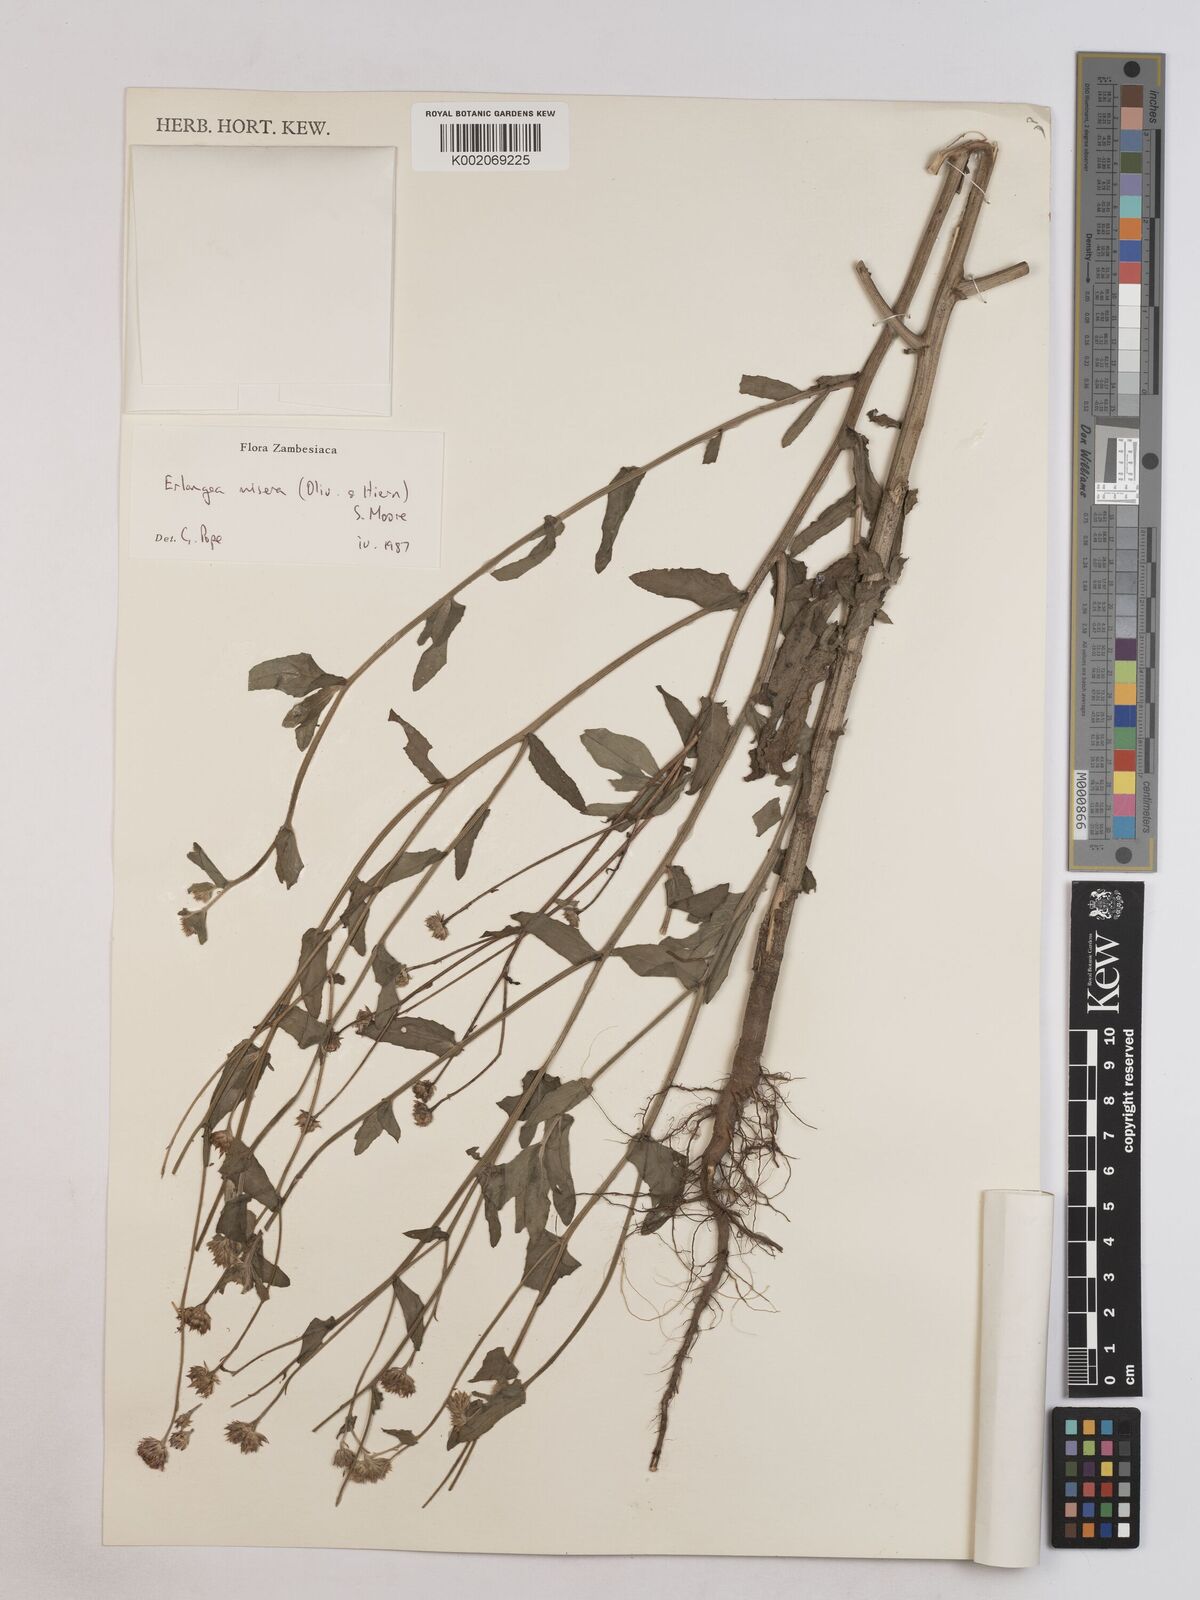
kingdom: Plantae
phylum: Tracheophyta
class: Magnoliopsida
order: Asterales
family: Asteraceae
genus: Erlangea
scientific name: Erlangea misera
